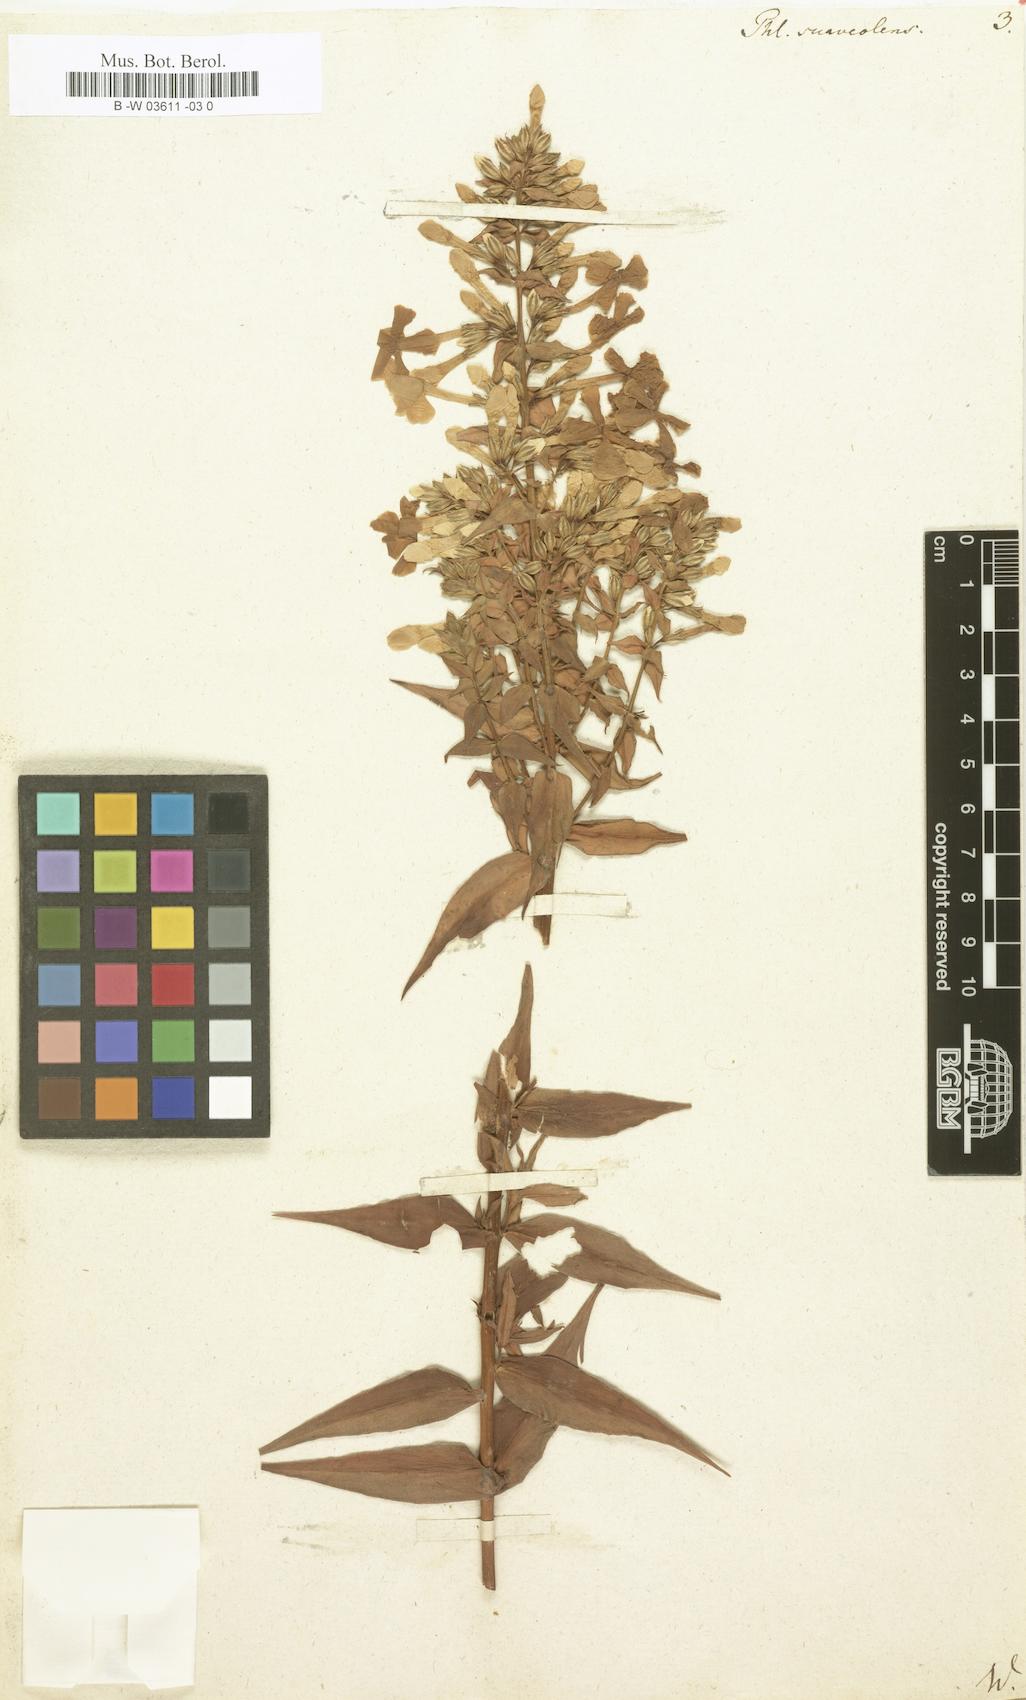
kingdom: Plantae
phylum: Tracheophyta
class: Magnoliopsida
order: Ericales
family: Polemoniaceae
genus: Phlox
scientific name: Phlox maculata
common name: Meadow phlox
